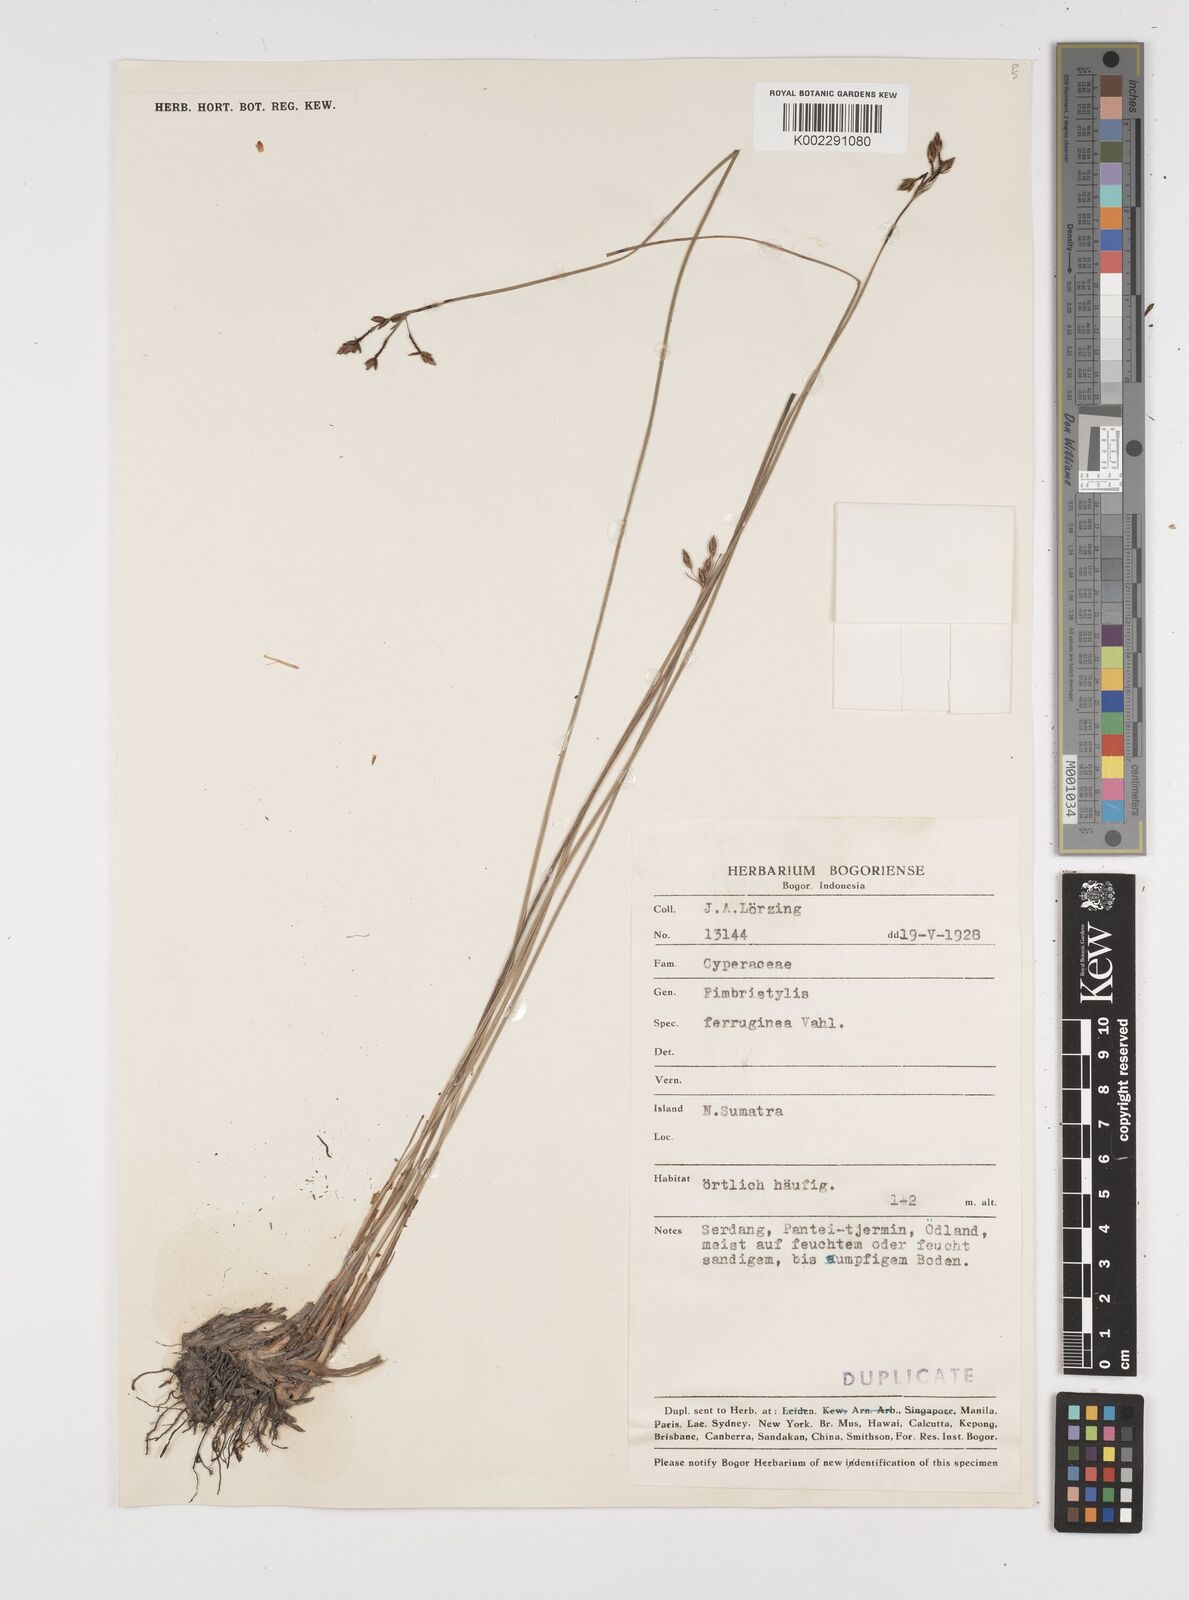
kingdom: Plantae
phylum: Tracheophyta
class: Liliopsida
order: Poales
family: Cyperaceae
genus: Fimbristylis
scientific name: Fimbristylis ferruginea
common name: West indian fimbry
